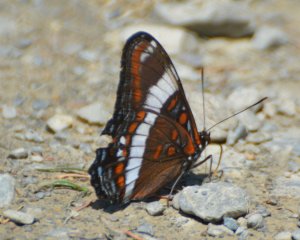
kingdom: Animalia
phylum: Arthropoda
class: Insecta
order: Lepidoptera
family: Nymphalidae
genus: Limenitis
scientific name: Limenitis arthemis
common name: Red-spotted Admiral
